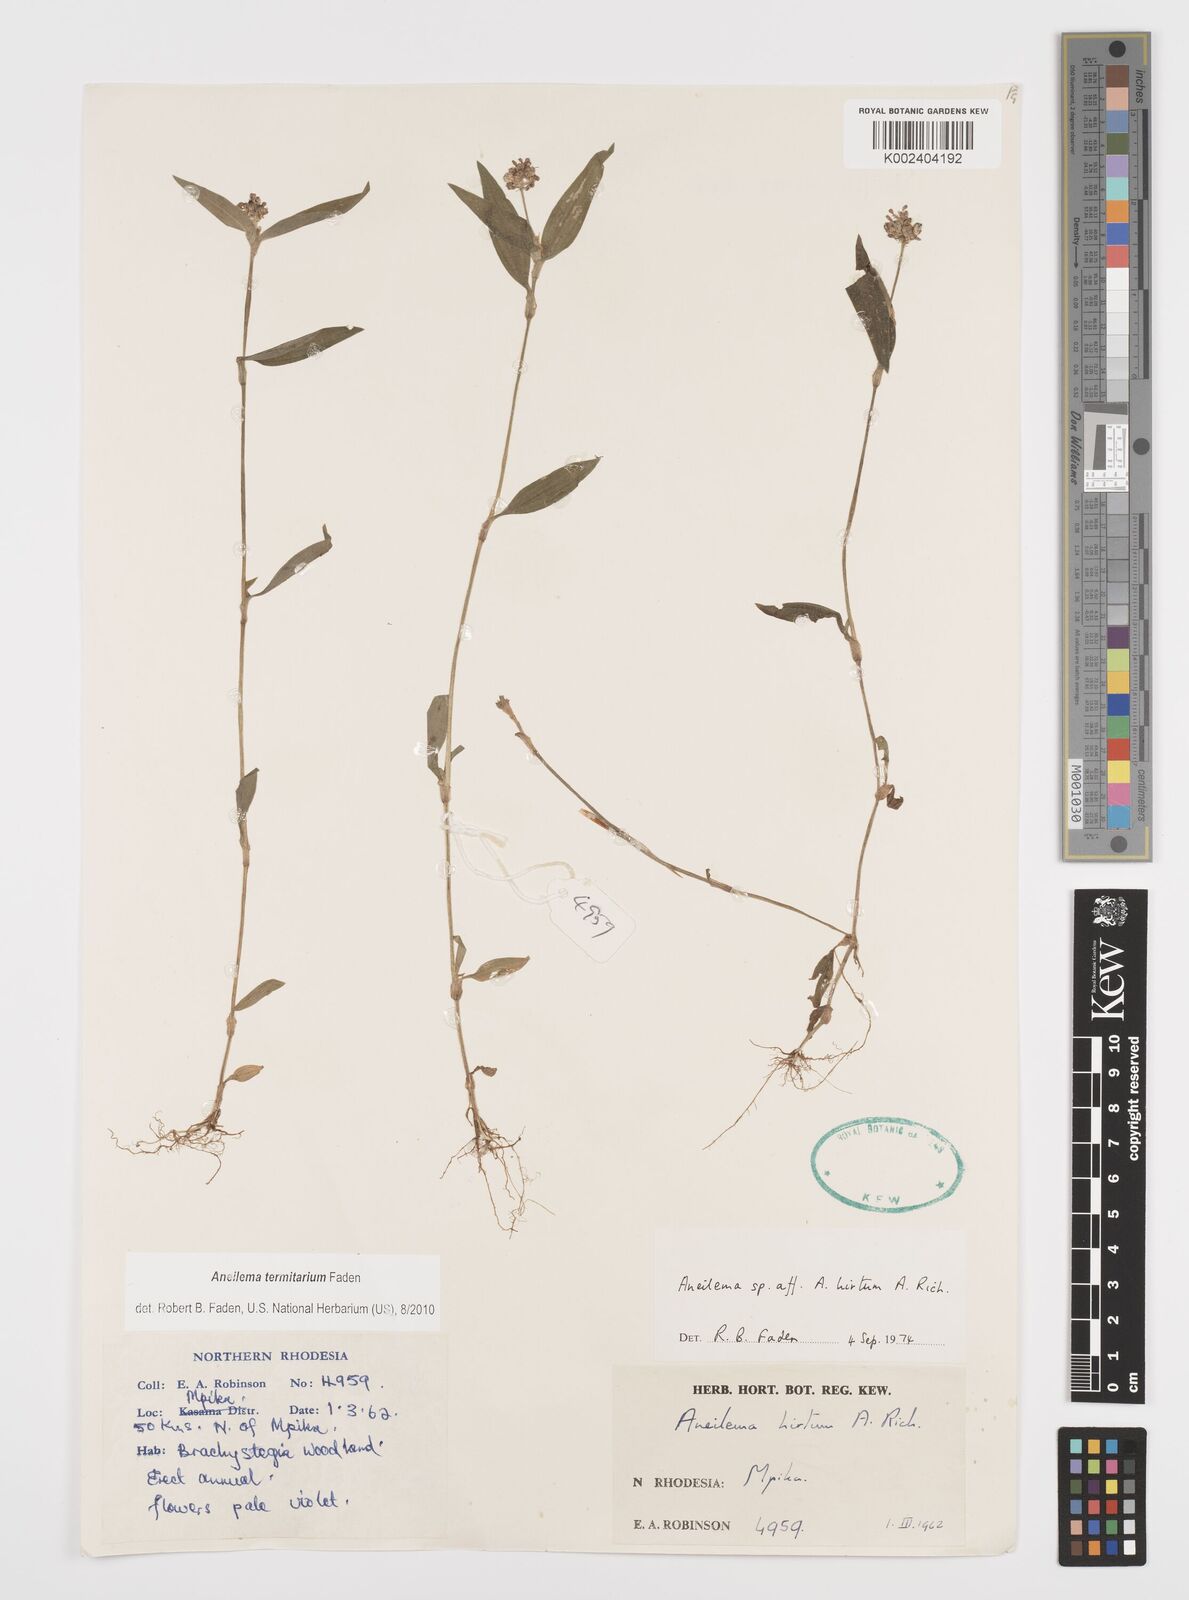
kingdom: Plantae
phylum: Tracheophyta
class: Liliopsida
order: Commelinales
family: Commelinaceae
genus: Aneilema
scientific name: Aneilema termitarium
